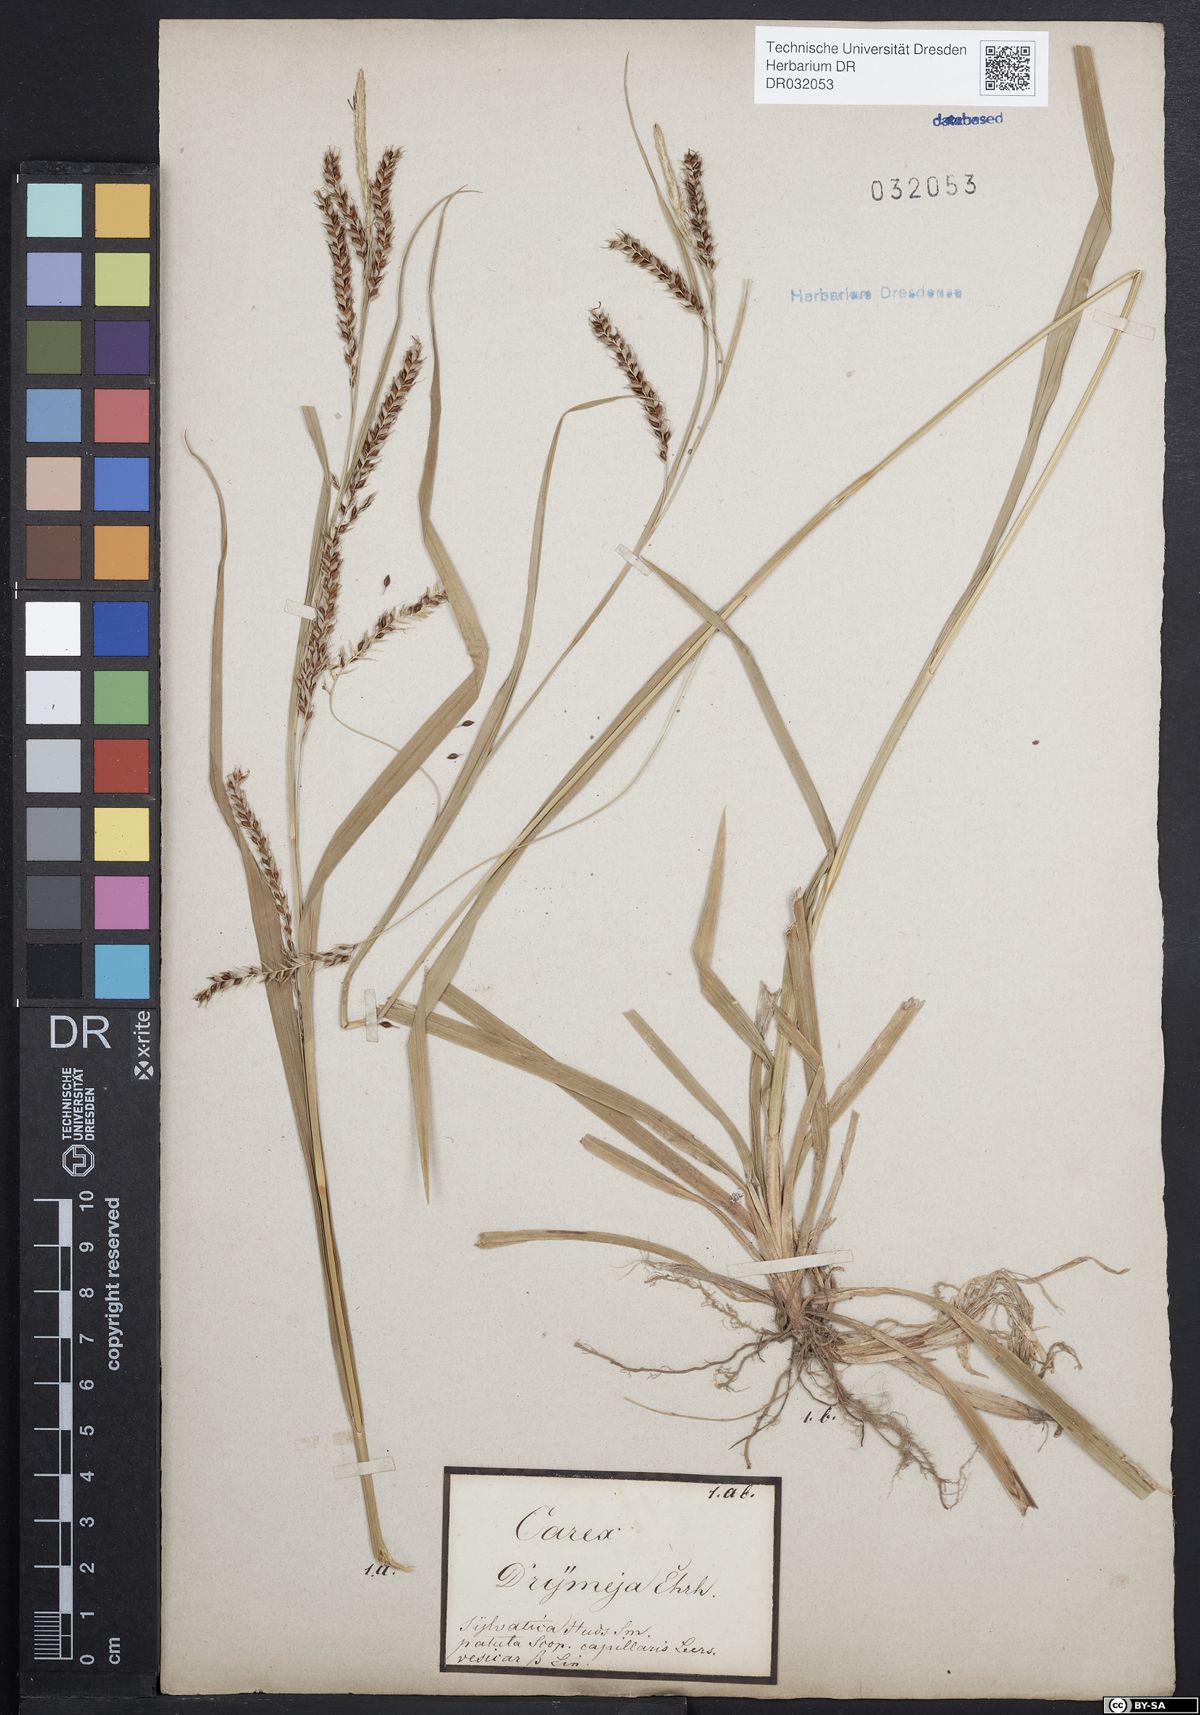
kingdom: Plantae
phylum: Tracheophyta
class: Liliopsida
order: Poales
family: Cyperaceae
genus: Carex
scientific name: Carex sylvatica
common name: Wood-sedge
